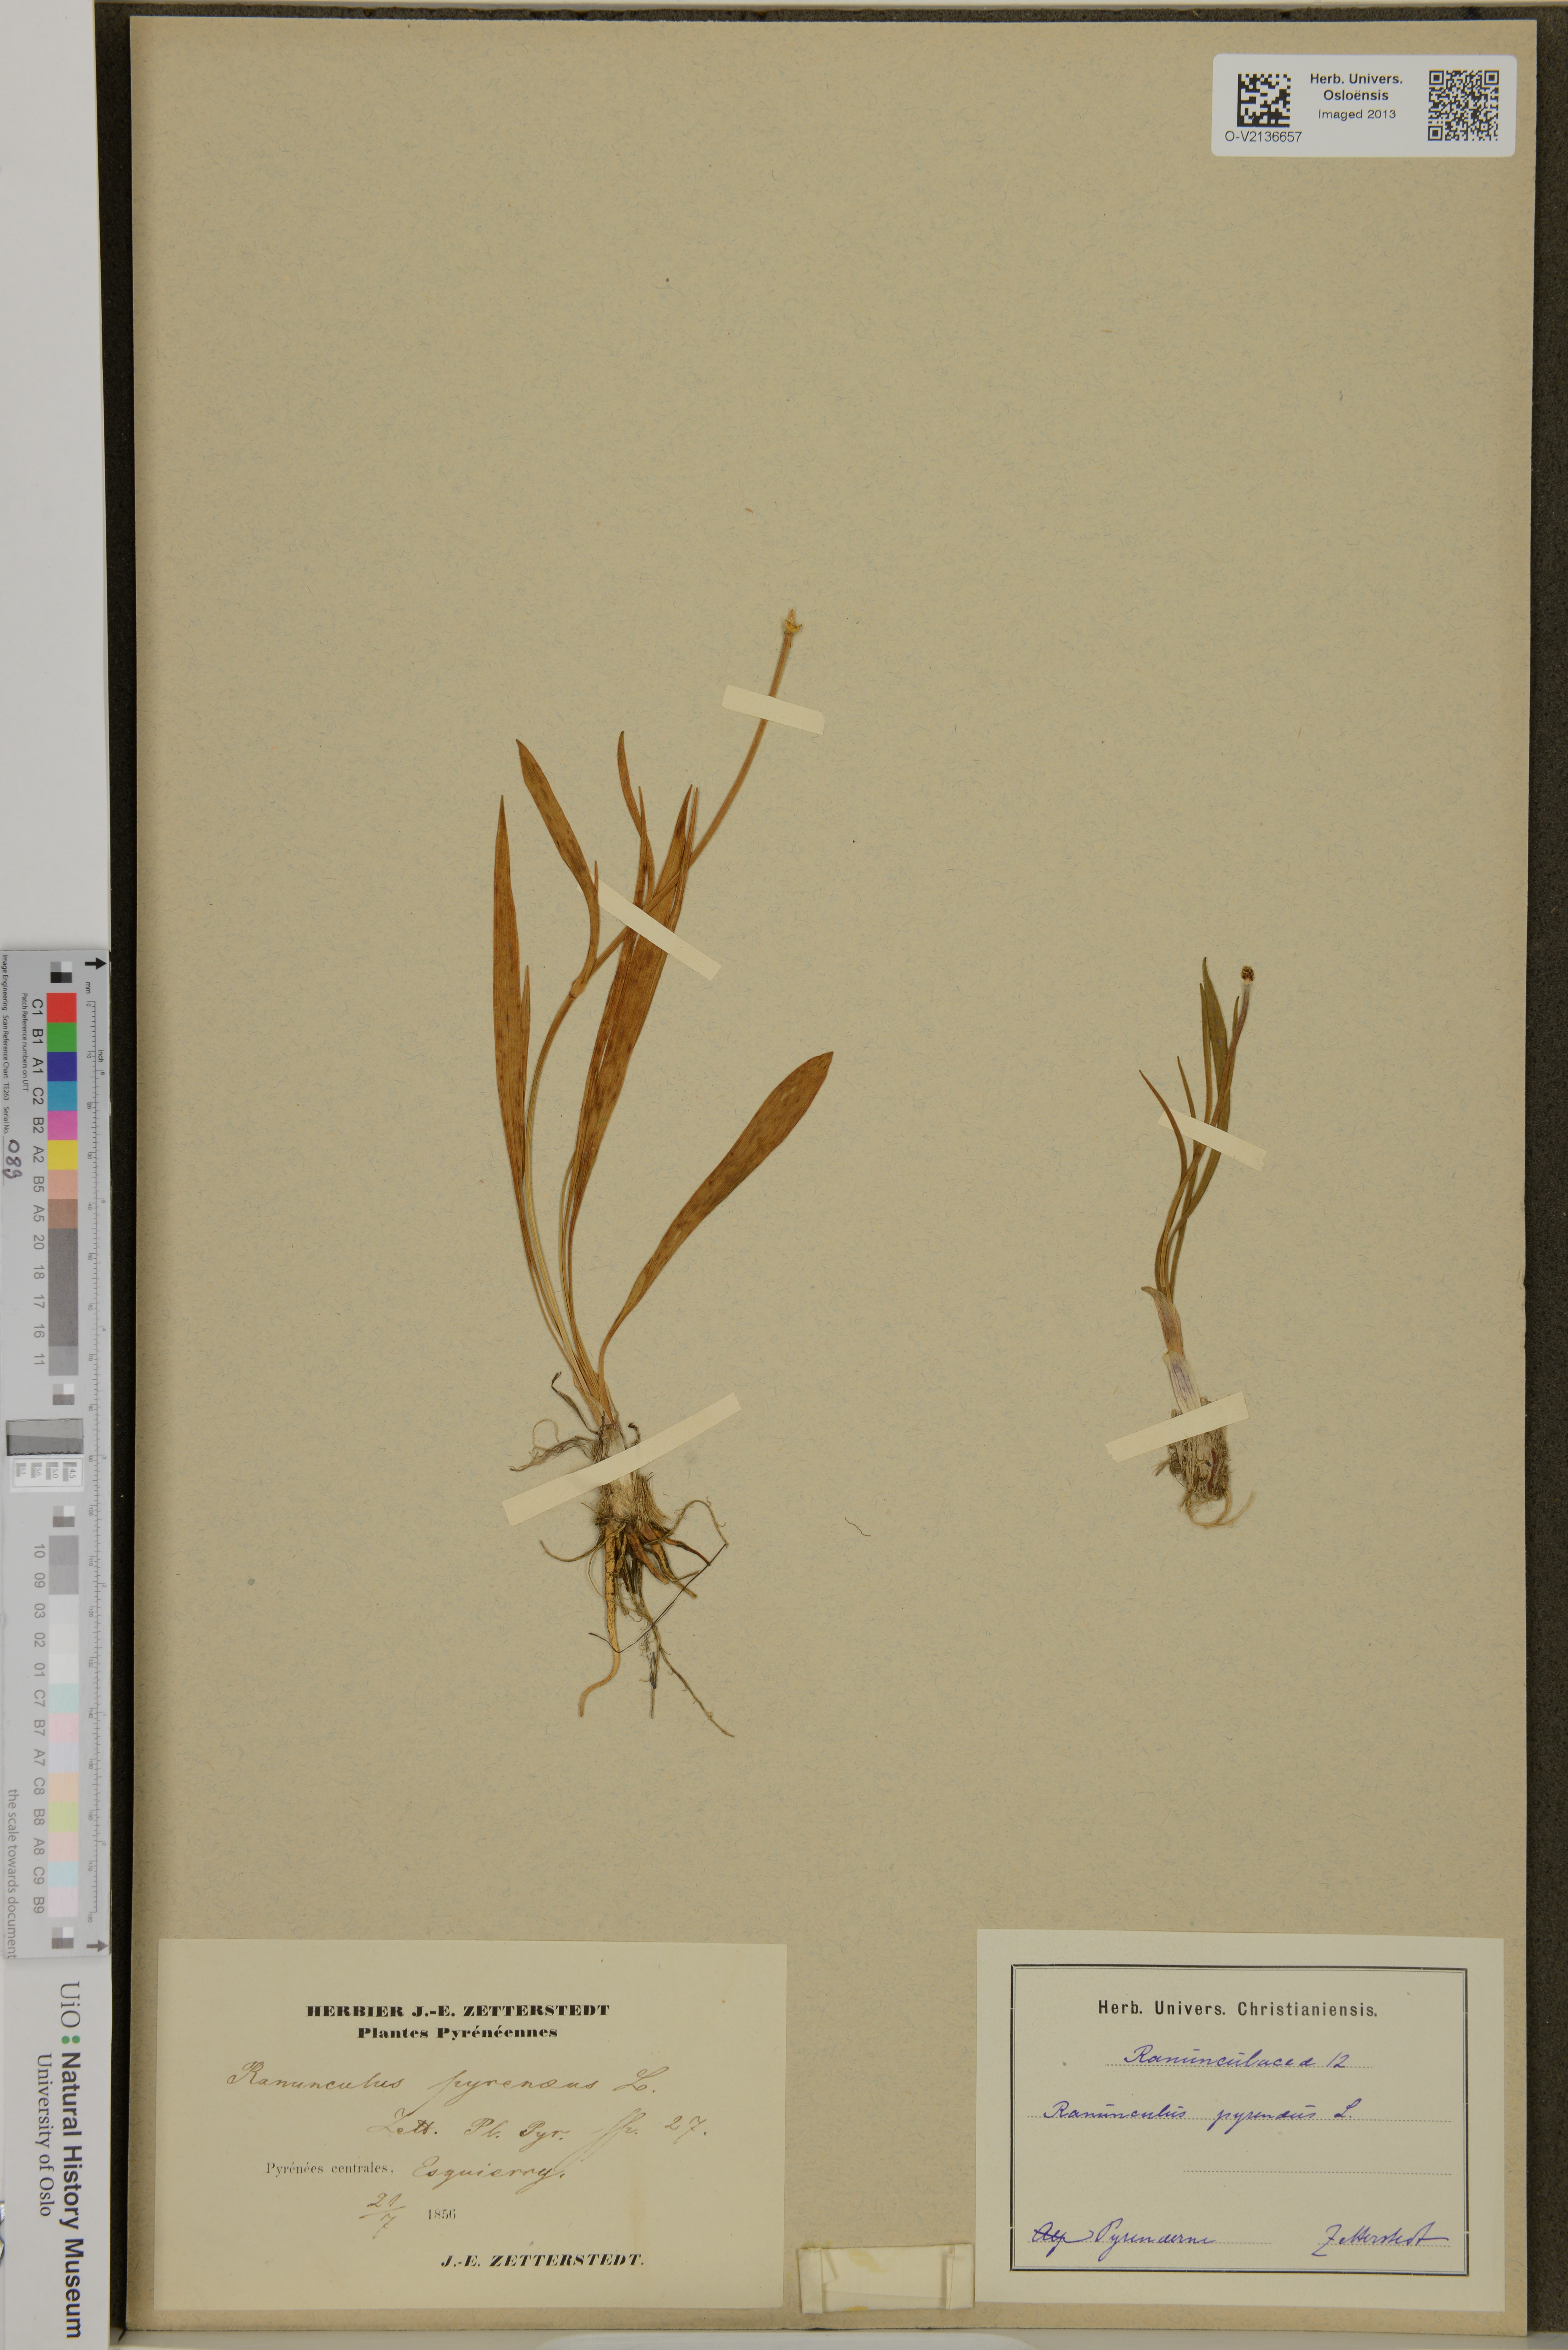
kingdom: Plantae
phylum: Tracheophyta
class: Magnoliopsida
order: Ranunculales
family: Ranunculaceae
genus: Ranunculus
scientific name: Ranunculus pyrenaeus
